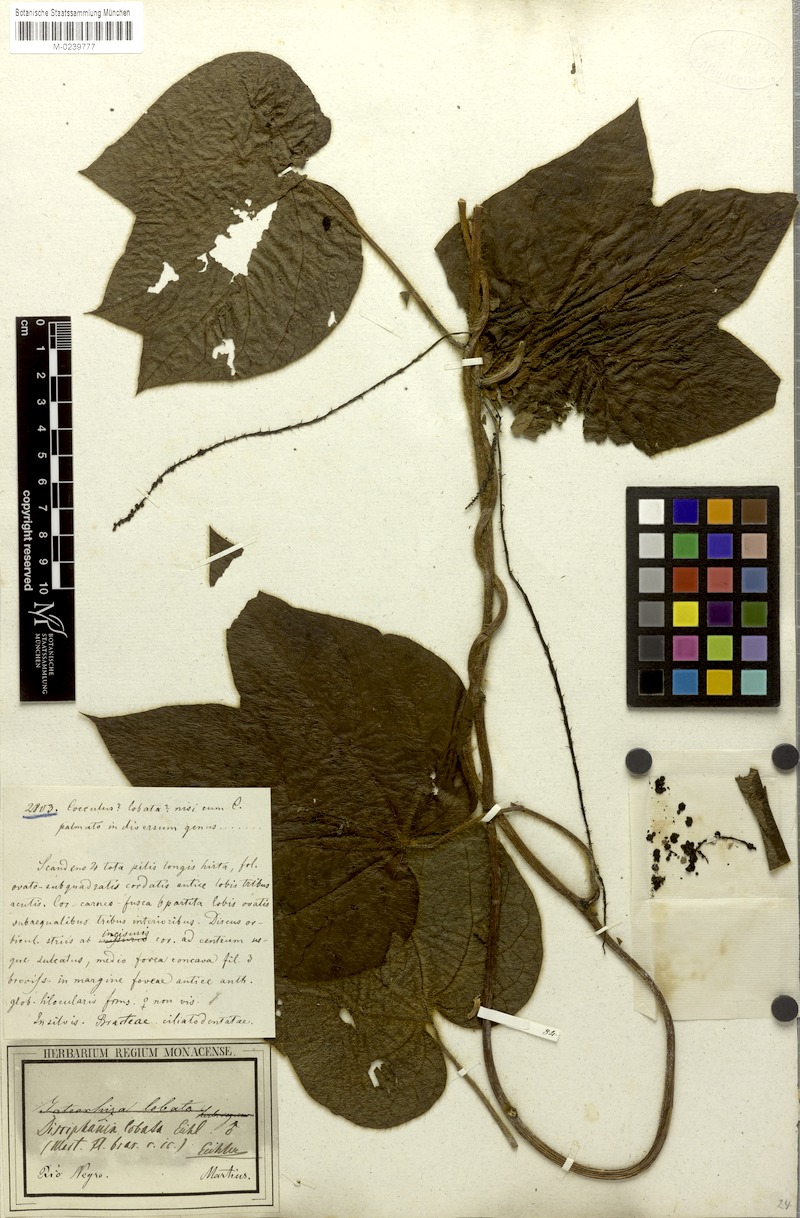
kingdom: Plantae
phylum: Tracheophyta
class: Magnoliopsida
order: Ranunculales
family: Menispermaceae
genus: Disciphania
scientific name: Disciphania lobata
